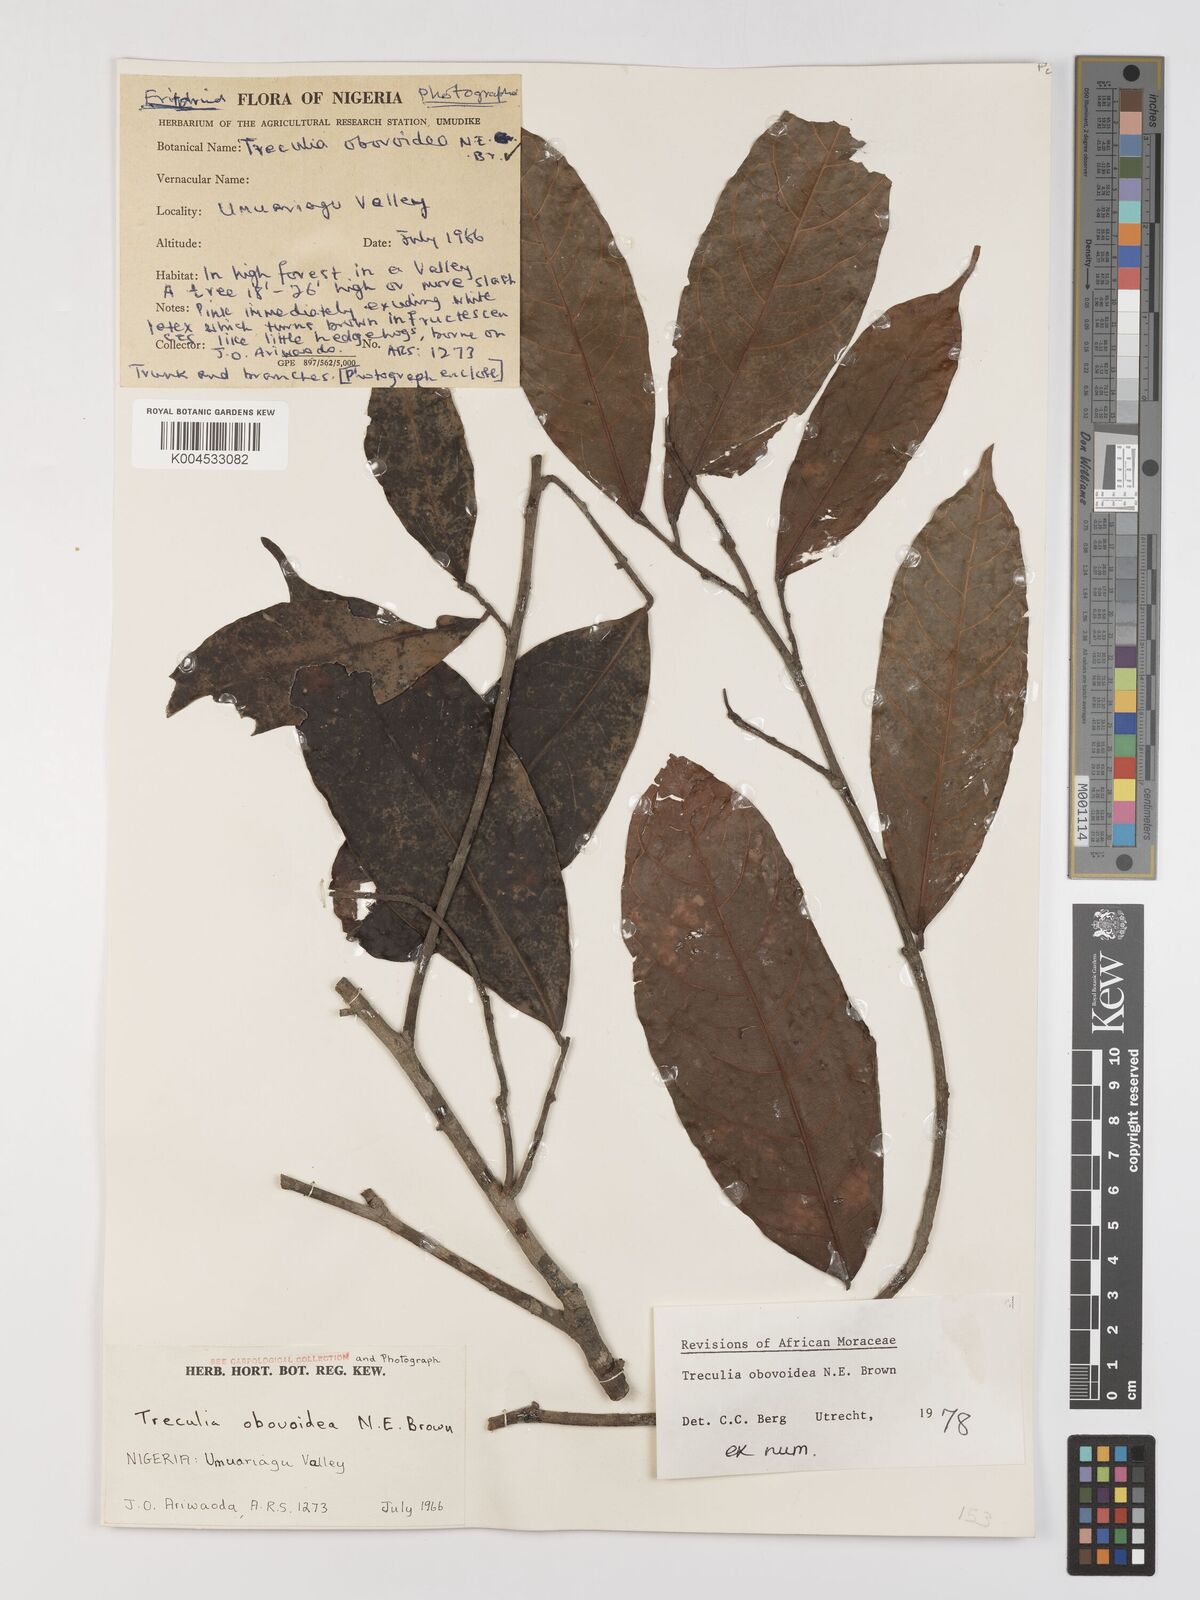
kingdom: Plantae
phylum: Tracheophyta
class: Magnoliopsida
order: Rosales
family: Moraceae
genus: Treculia
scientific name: Treculia obovoidea
